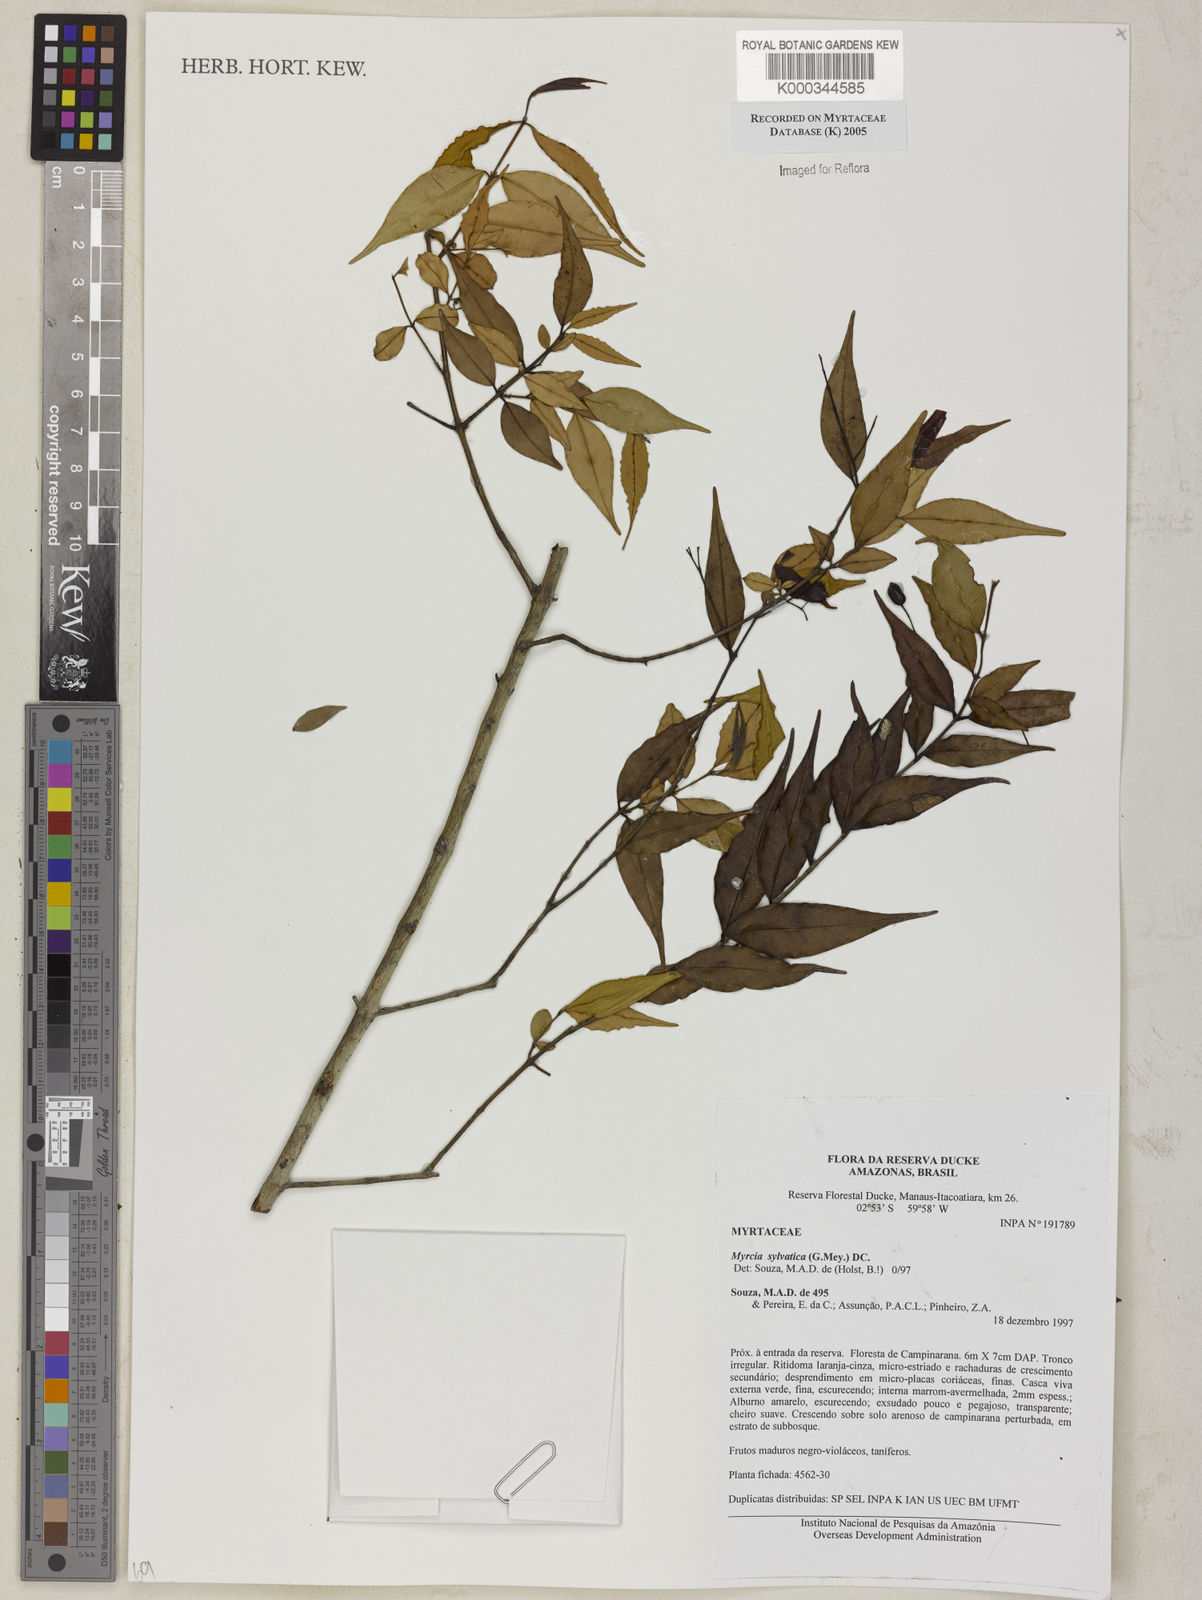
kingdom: Plantae
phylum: Tracheophyta
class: Magnoliopsida
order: Myrtales
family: Myrtaceae
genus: Myrcia
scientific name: Myrcia sylvatica
